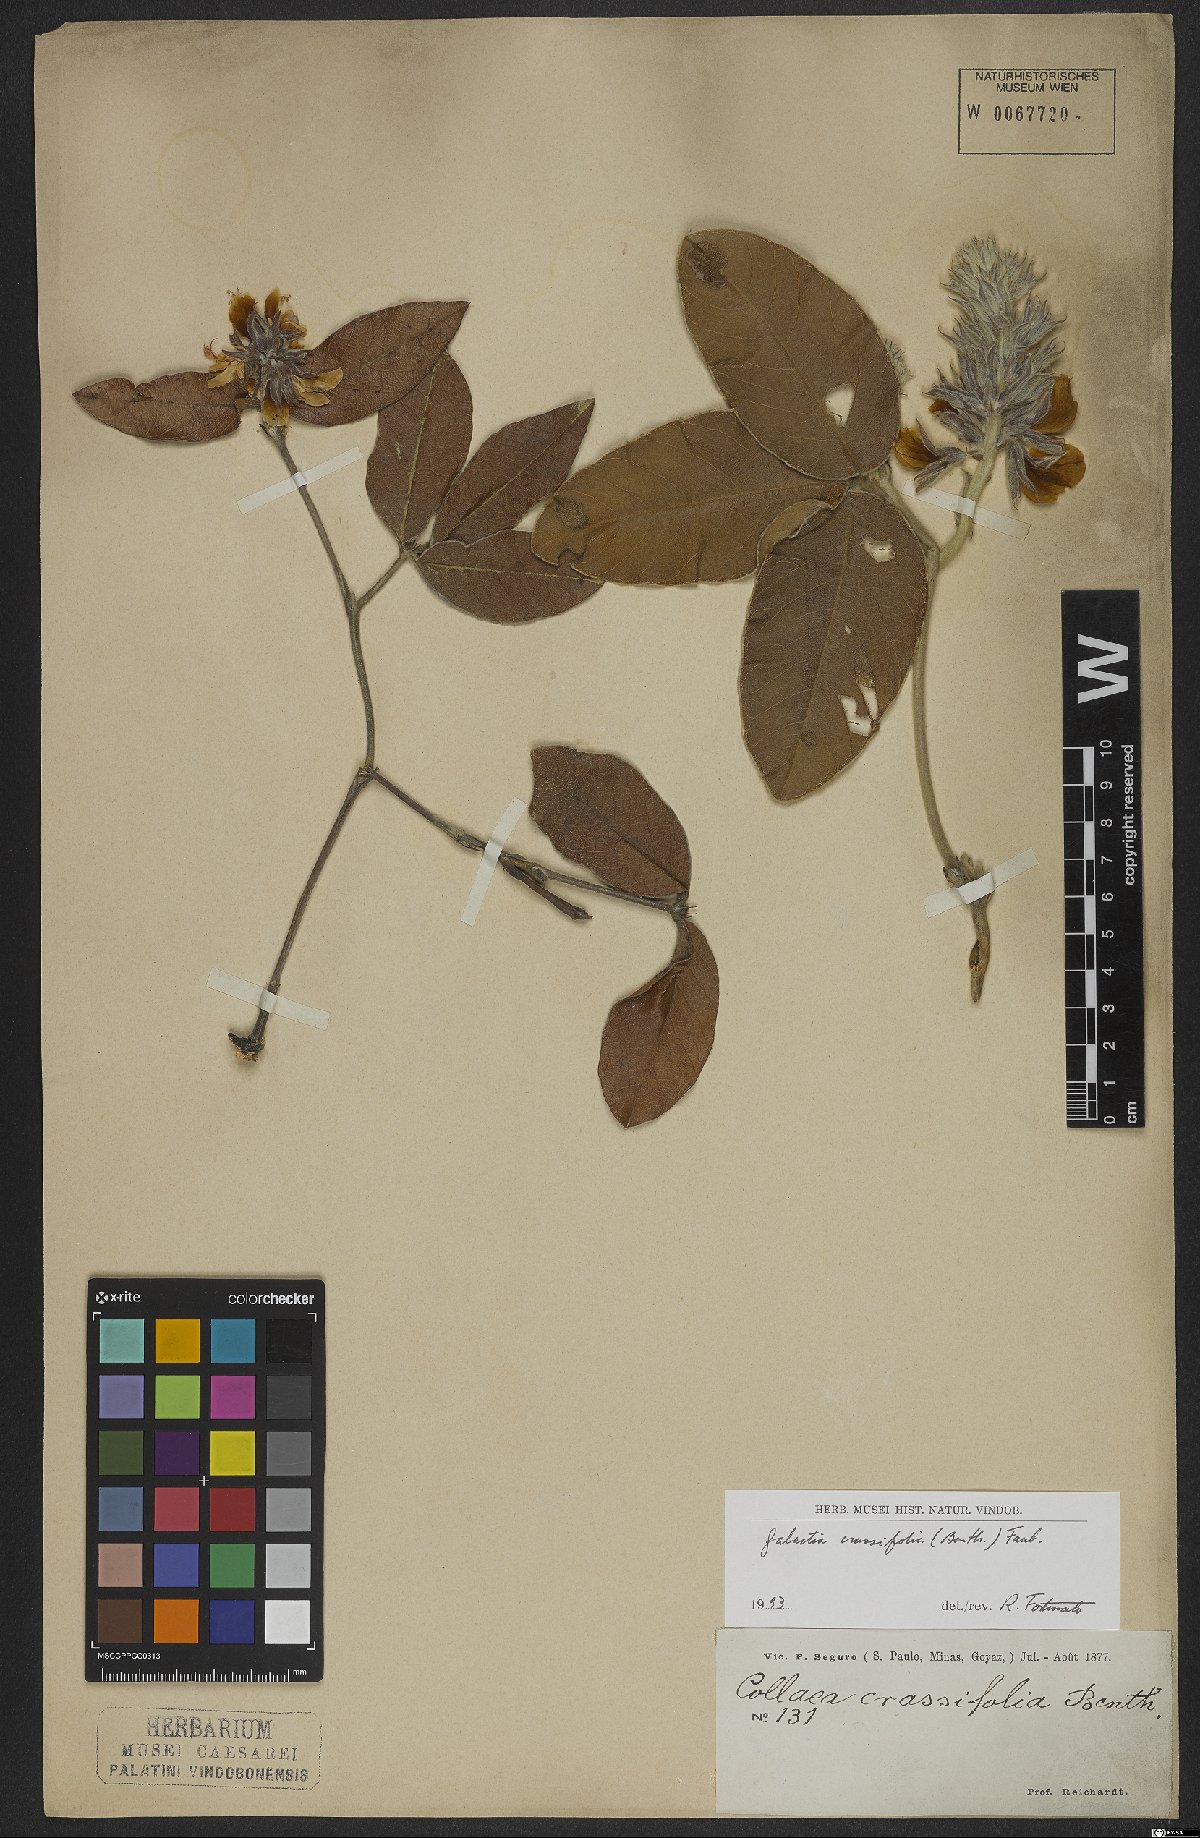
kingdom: Plantae
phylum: Tracheophyta
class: Magnoliopsida
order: Fabales
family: Fabaceae
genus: Betencourtia
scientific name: Betencourtia crassifolia
